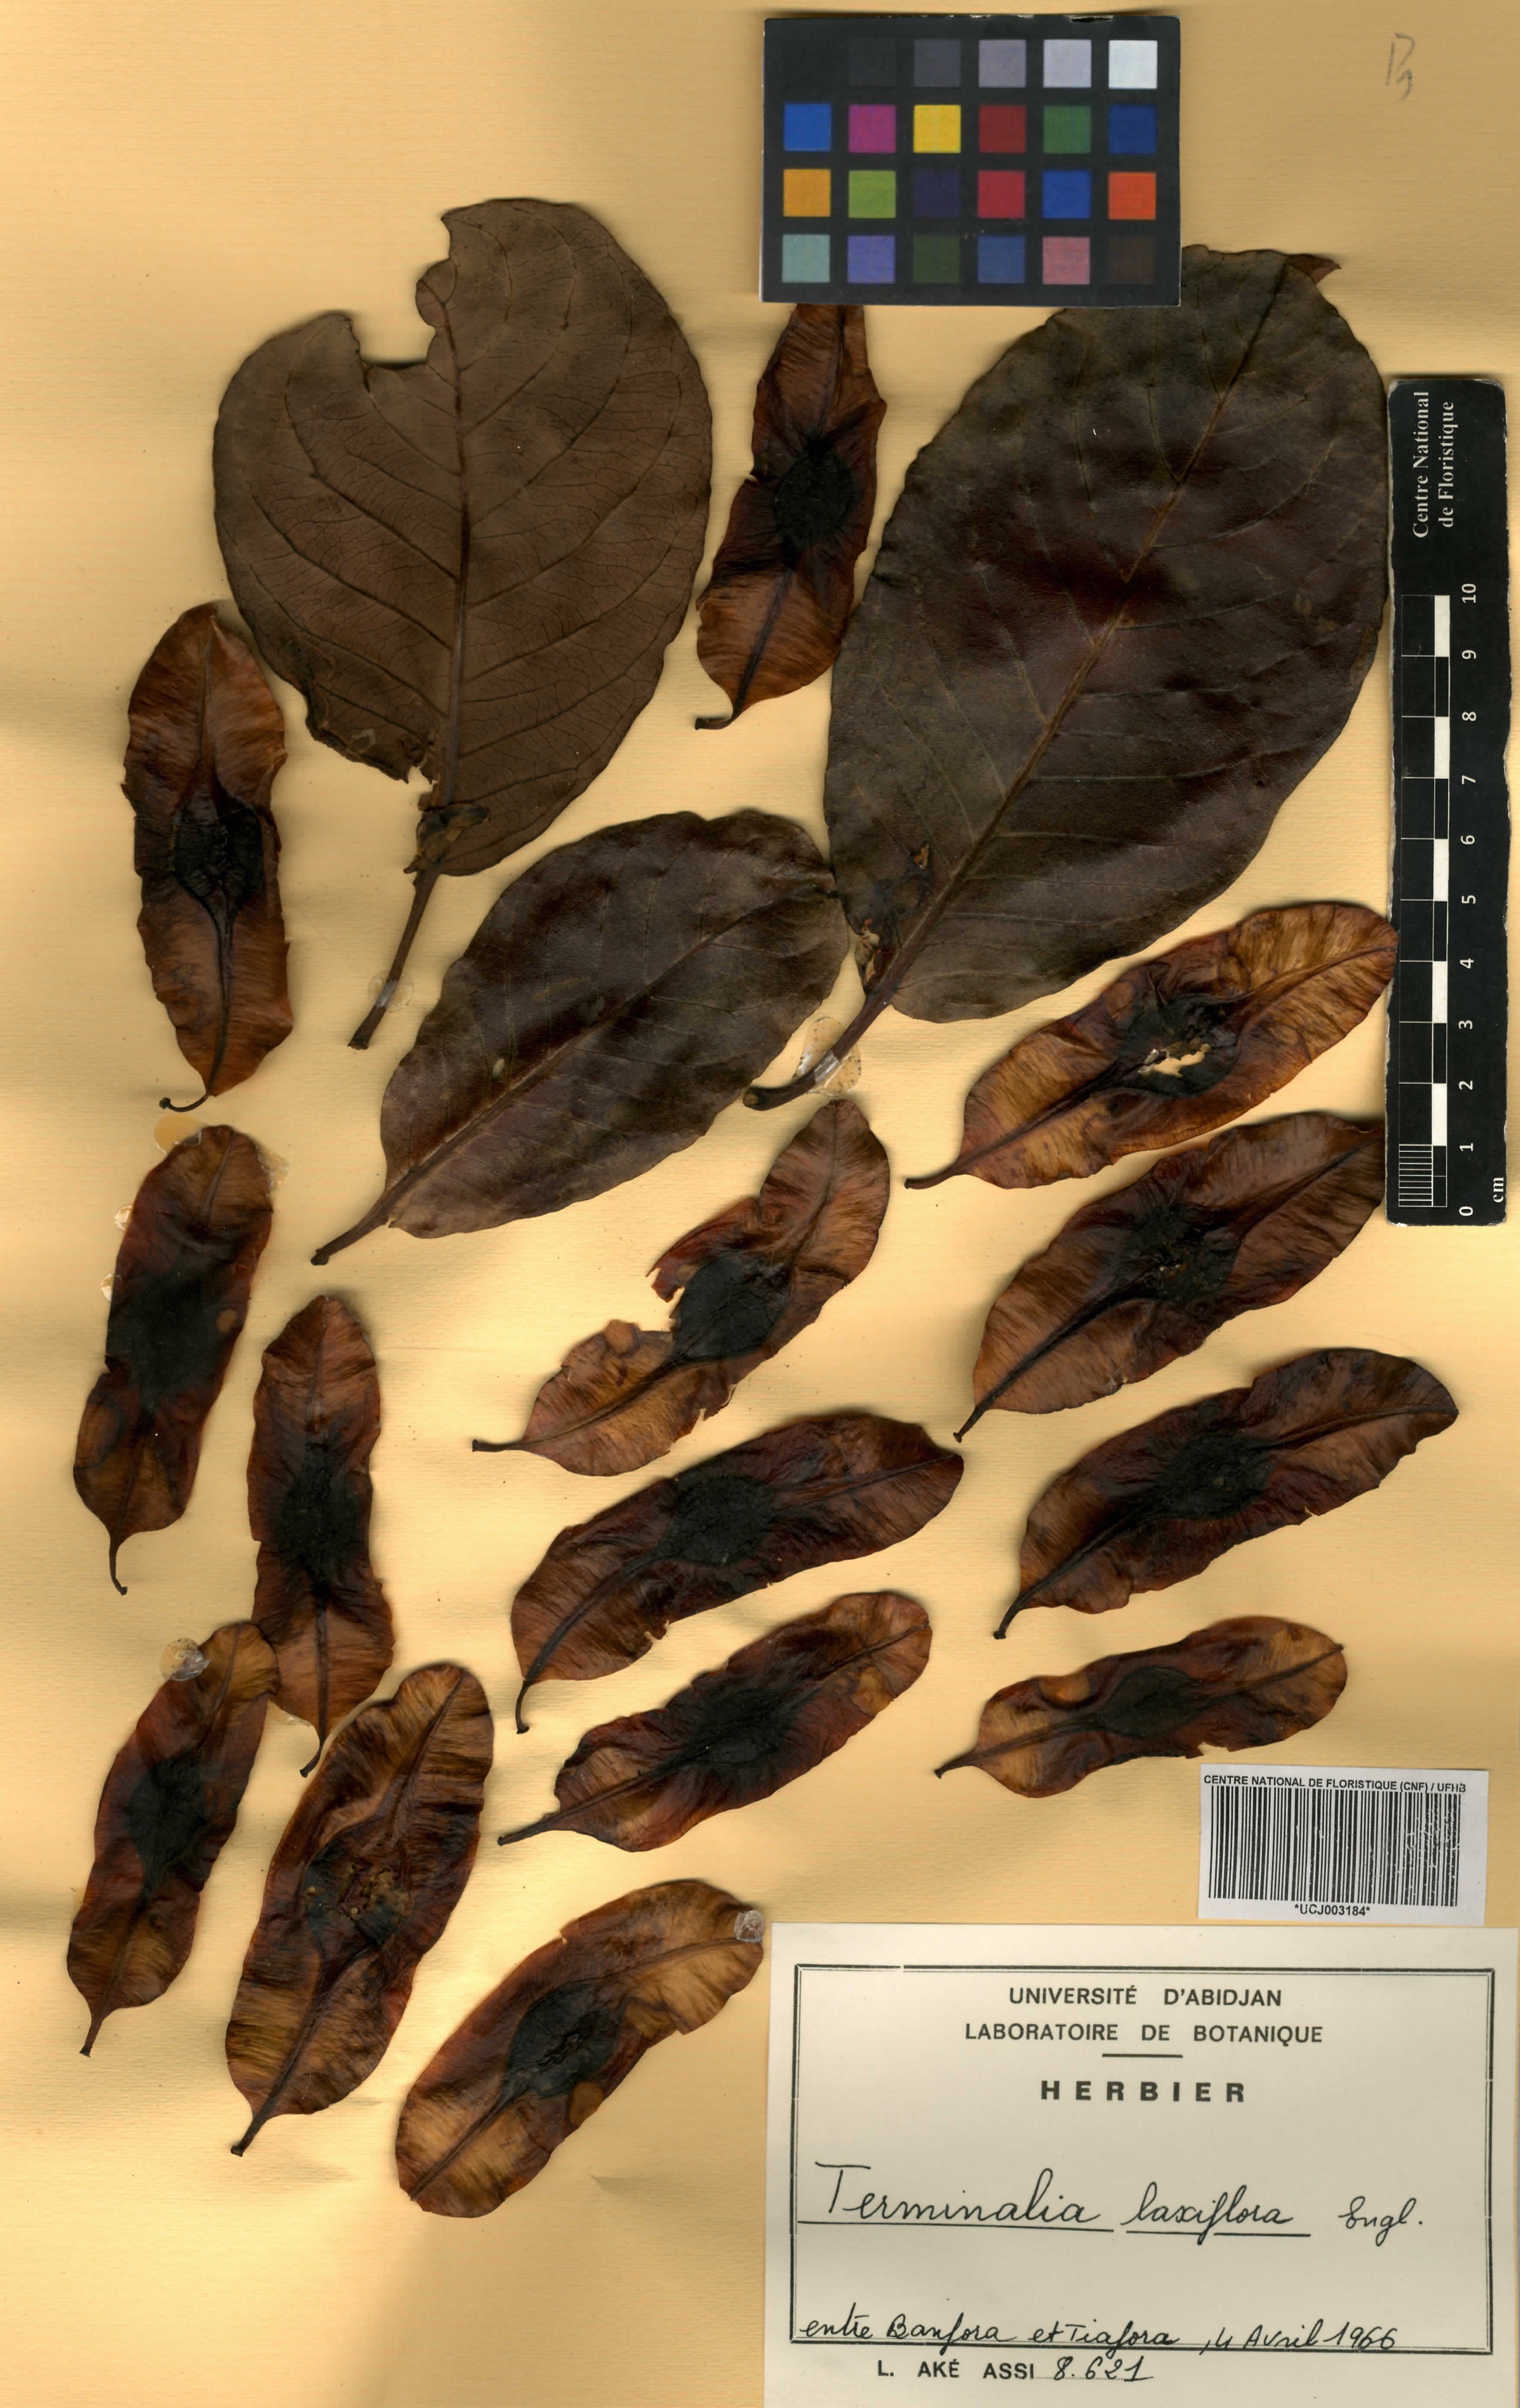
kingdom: Plantae
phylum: Tracheophyta
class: Magnoliopsida
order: Myrtales
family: Combretaceae
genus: Terminalia
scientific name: Terminalia laxiflora
